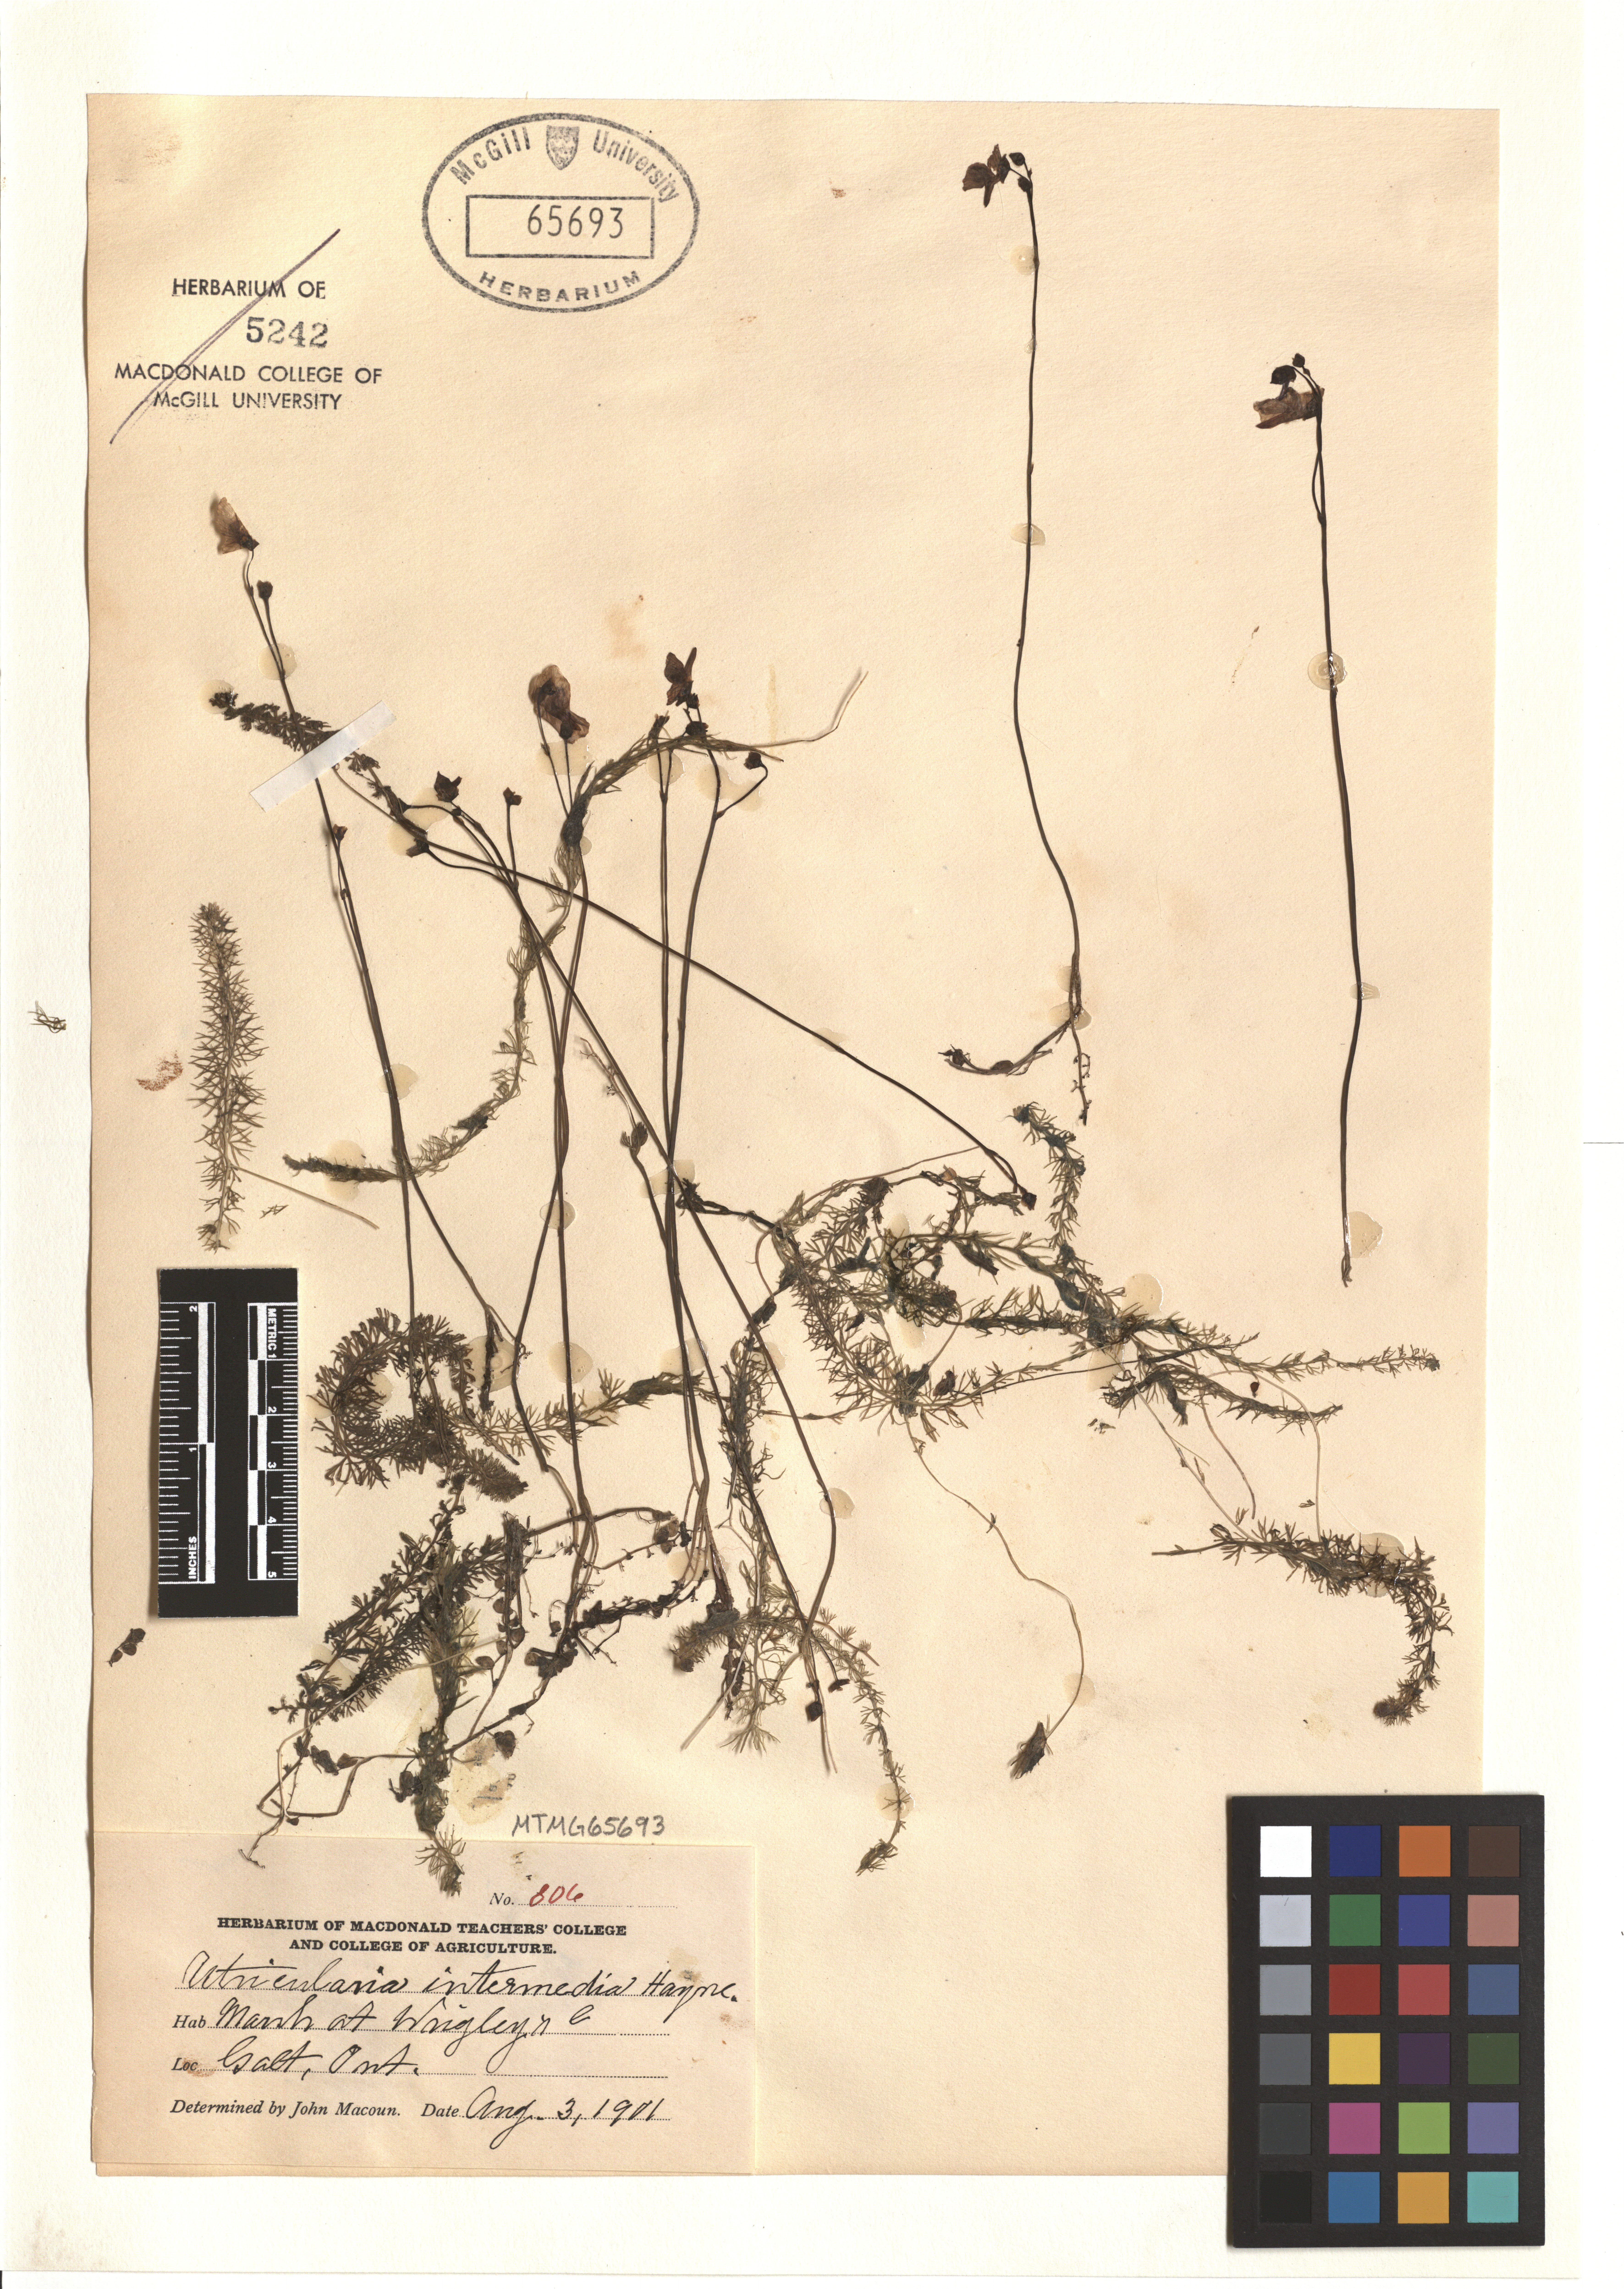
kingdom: Plantae
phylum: Tracheophyta
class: Magnoliopsida
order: Lamiales
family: Lentibulariaceae
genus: Utricularia
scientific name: Utricularia intermedia
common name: Intermediate bladderwort
